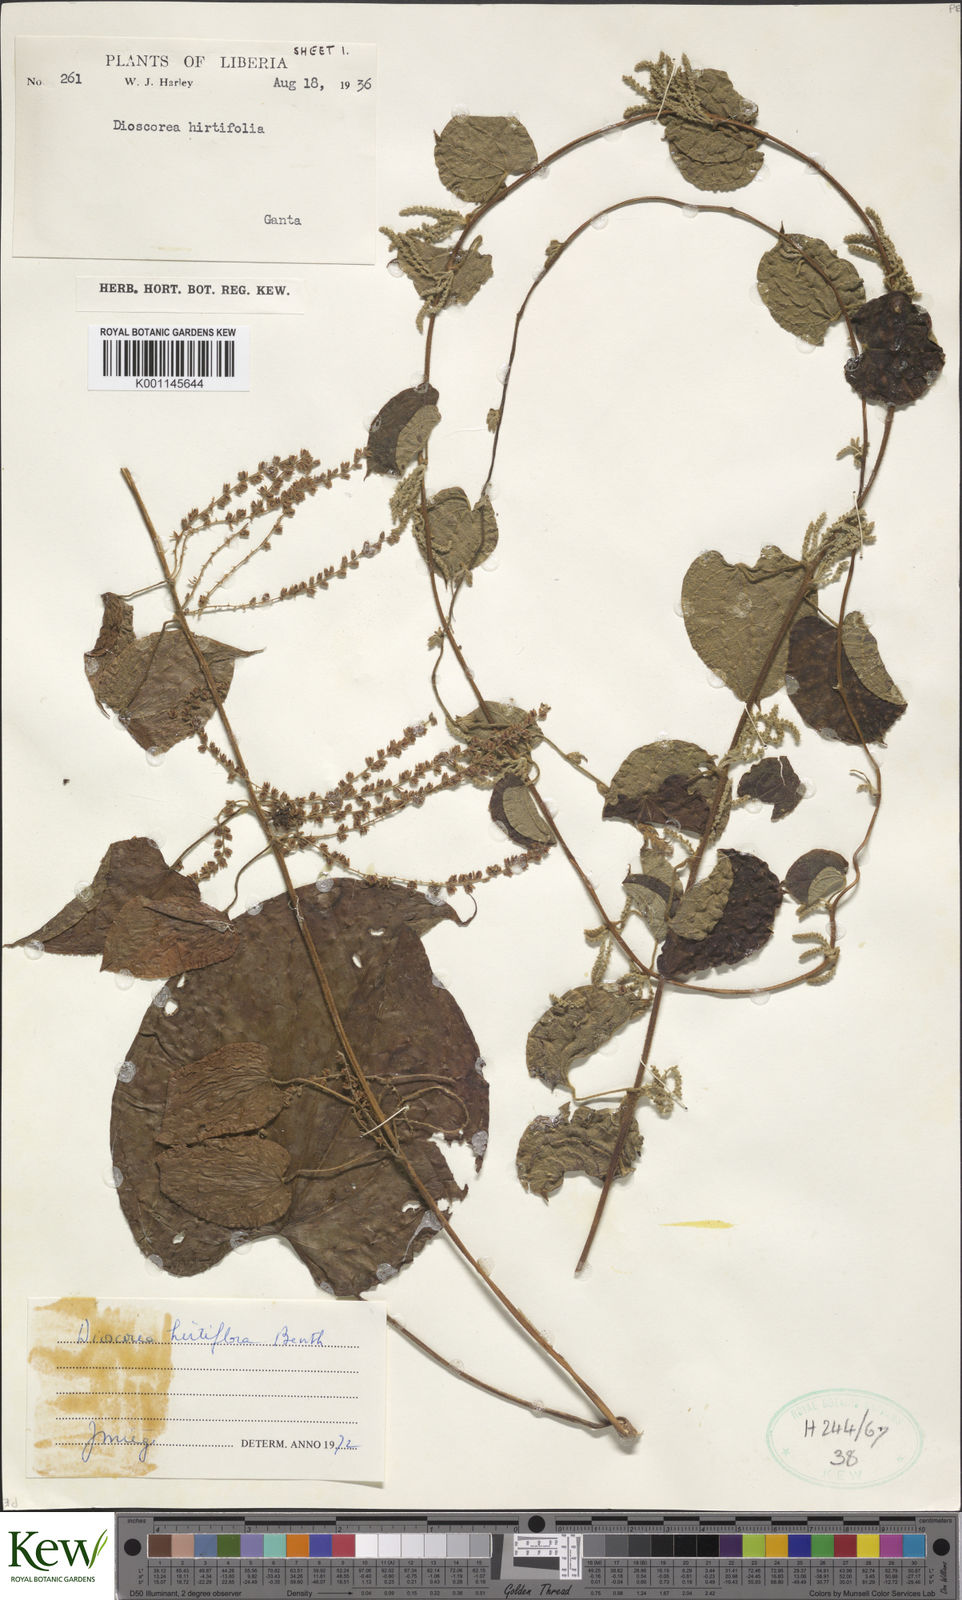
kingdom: Plantae
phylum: Tracheophyta
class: Liliopsida
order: Dioscoreales
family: Dioscoreaceae
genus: Dioscorea
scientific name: Dioscorea hirtiflora
